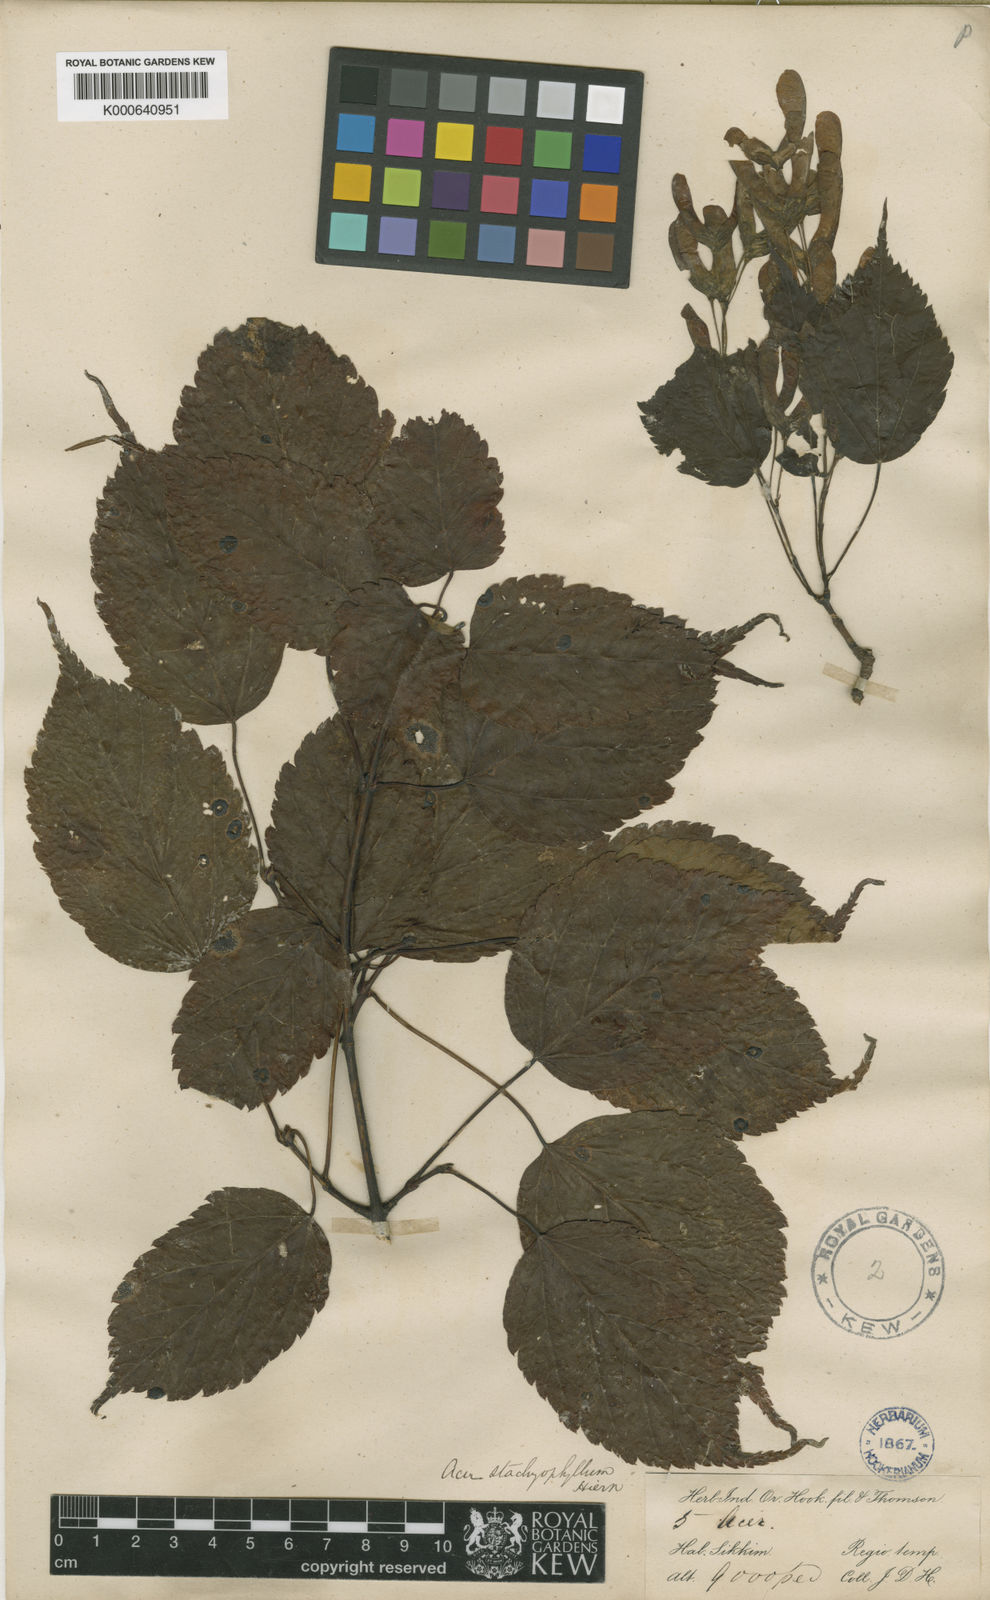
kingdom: Plantae
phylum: Tracheophyta
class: Magnoliopsida
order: Sapindales
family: Sapindaceae
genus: Acer
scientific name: Acer stachyophyllum
